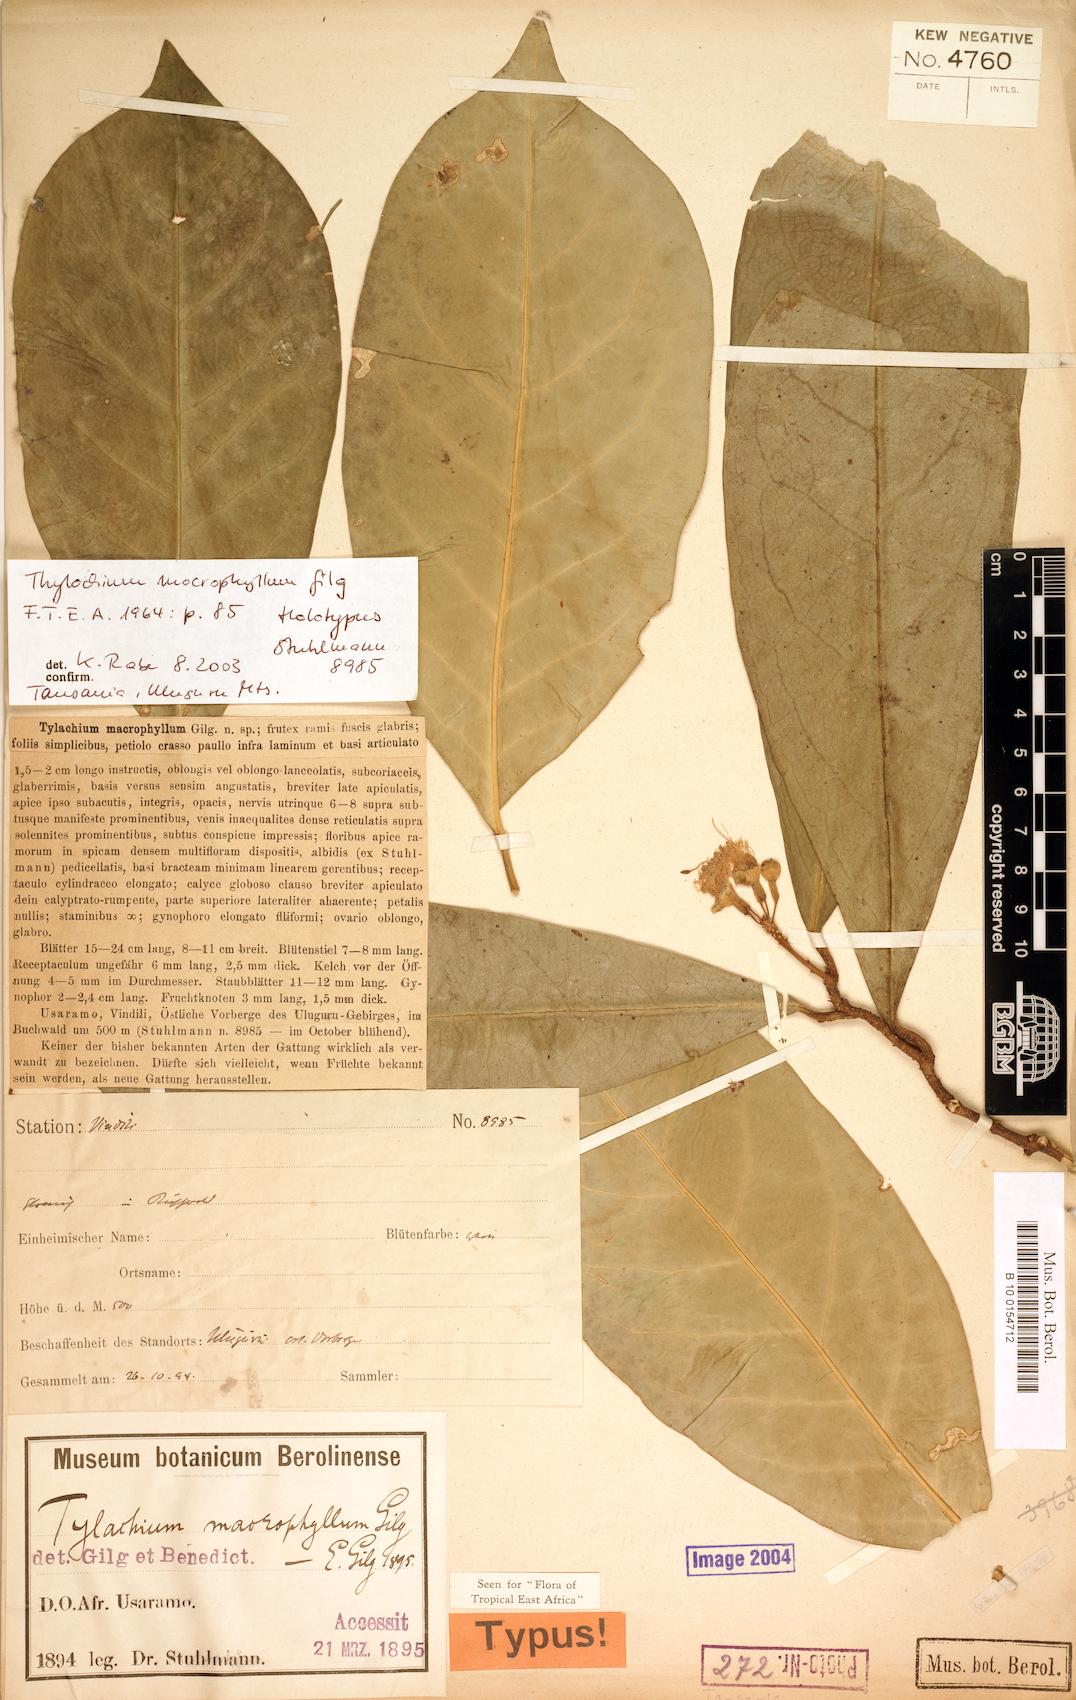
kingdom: Plantae
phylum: Tracheophyta
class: Magnoliopsida
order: Brassicales
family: Capparaceae
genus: Thilachium
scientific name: Thilachium macrophyllum
